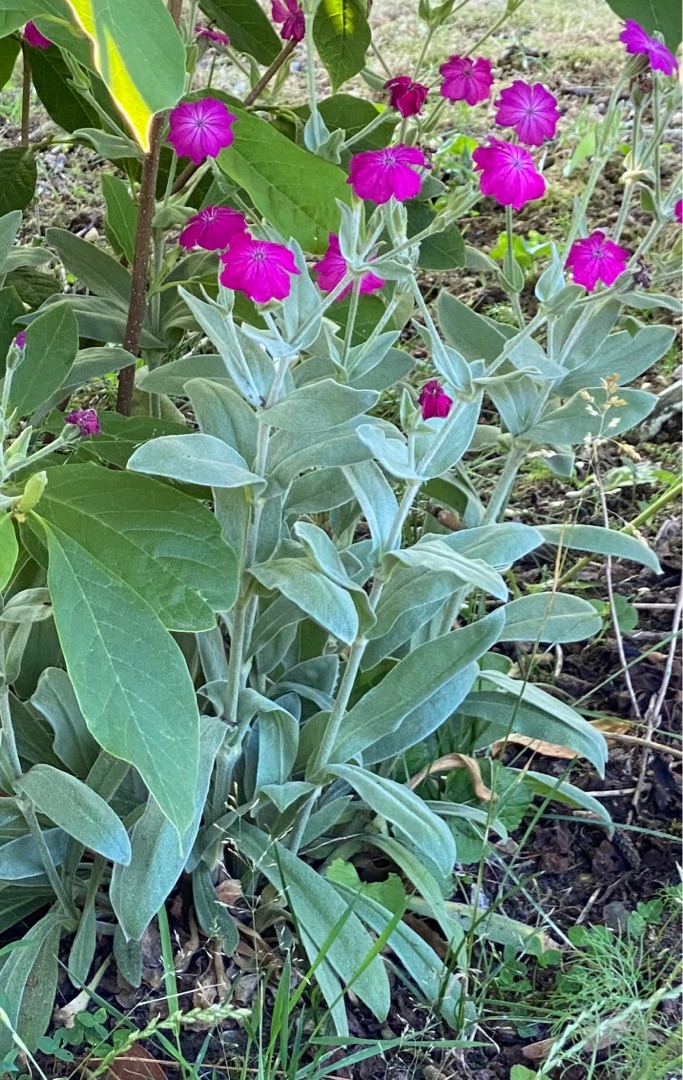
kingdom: Plantae
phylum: Tracheophyta
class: Magnoliopsida
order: Caryophyllales
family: Caryophyllaceae
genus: Silene
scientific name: Silene coronaria
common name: Fiksernellike
